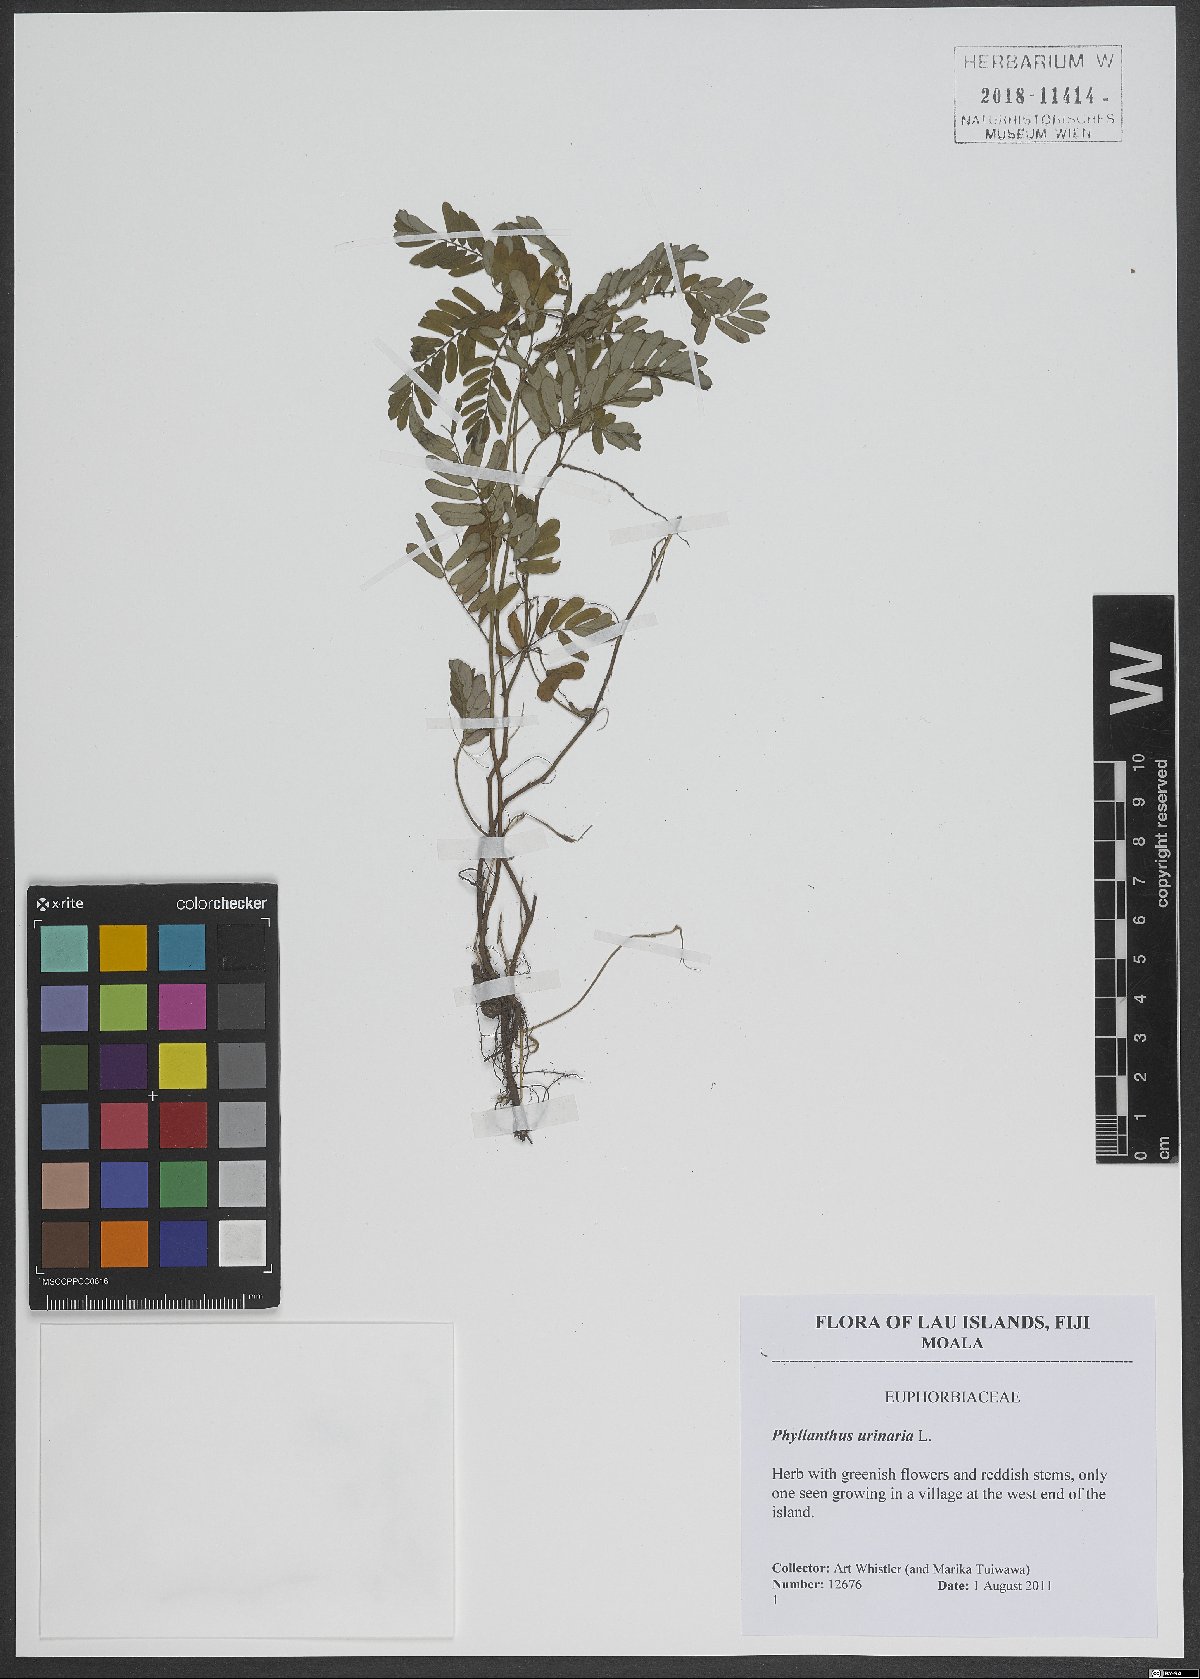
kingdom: Plantae
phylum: Tracheophyta
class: Magnoliopsida
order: Malpighiales
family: Phyllanthaceae
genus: Phyllanthus
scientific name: Phyllanthus urinaria
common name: Chamber bitter
